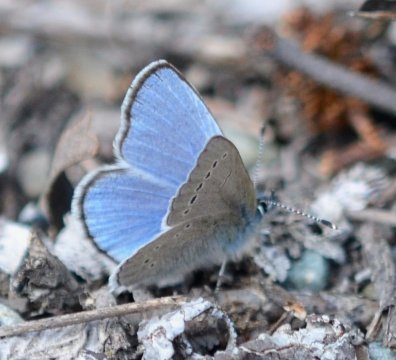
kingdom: Animalia
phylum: Arthropoda
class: Insecta
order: Lepidoptera
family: Lycaenidae
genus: Glaucopsyche
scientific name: Glaucopsyche lygdamus
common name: Silvery Blue
